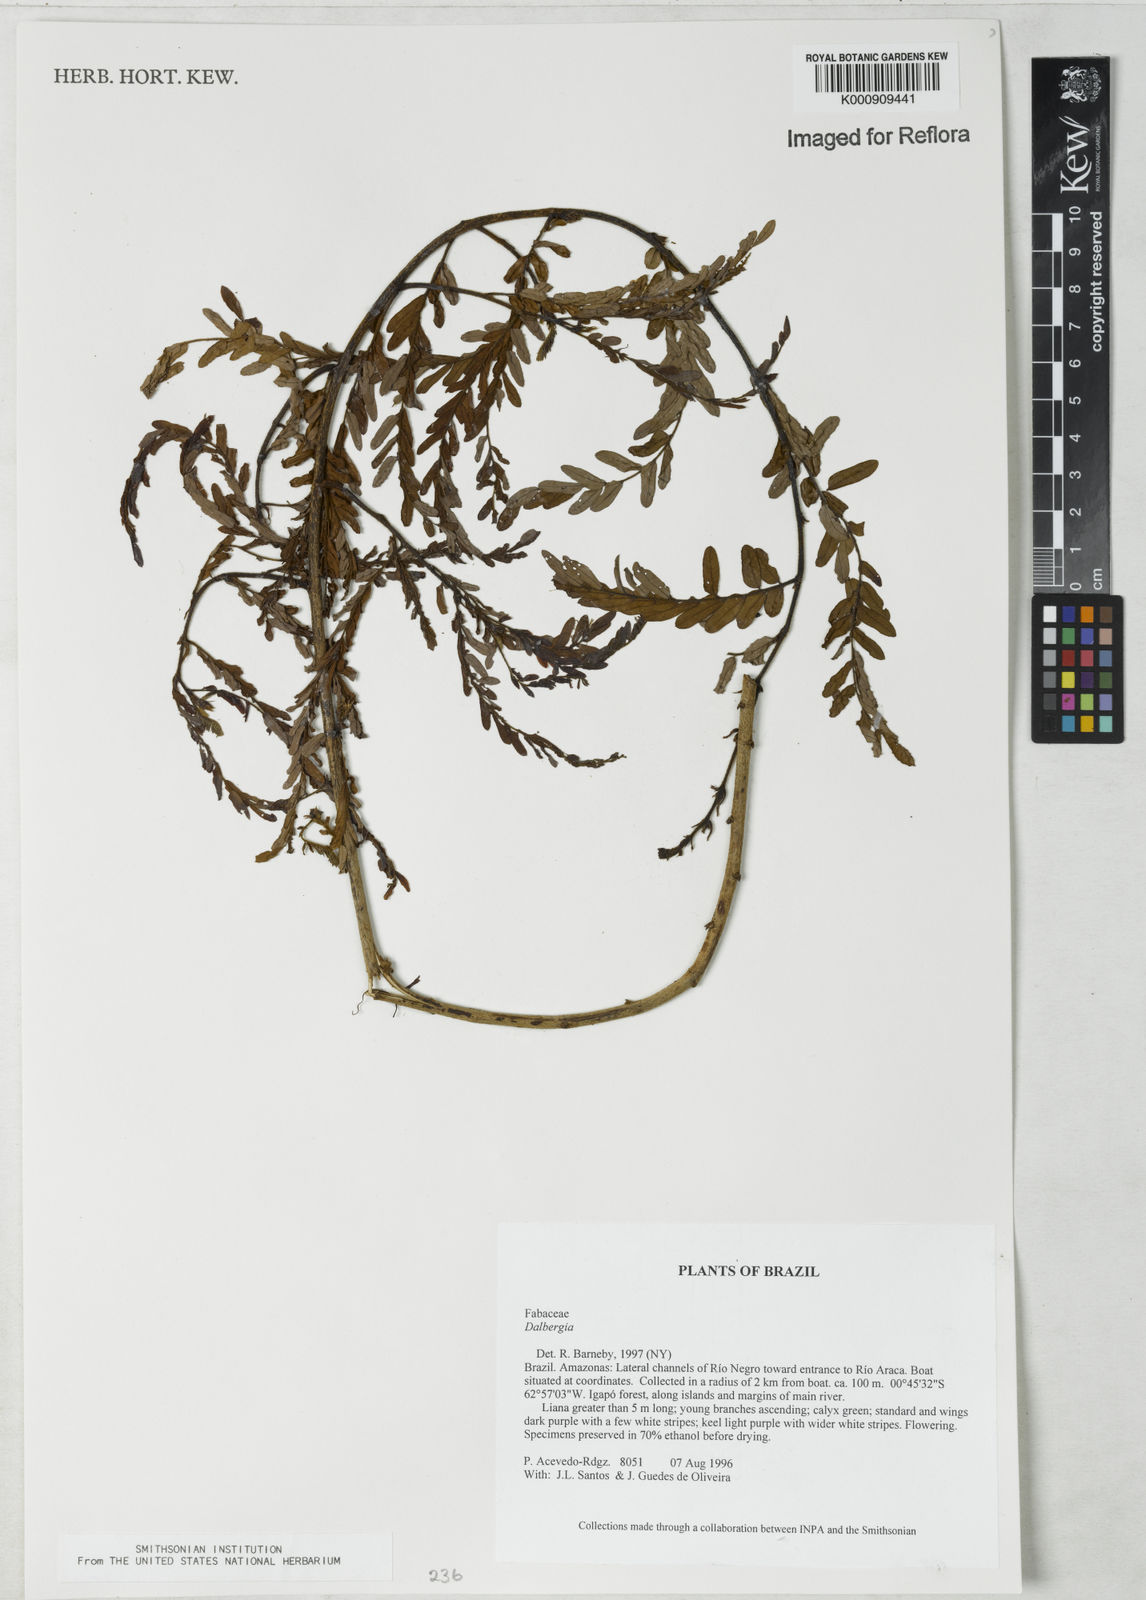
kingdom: Plantae
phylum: Tracheophyta
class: Magnoliopsida
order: Fabales
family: Fabaceae
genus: Dalbergia
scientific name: Dalbergia
